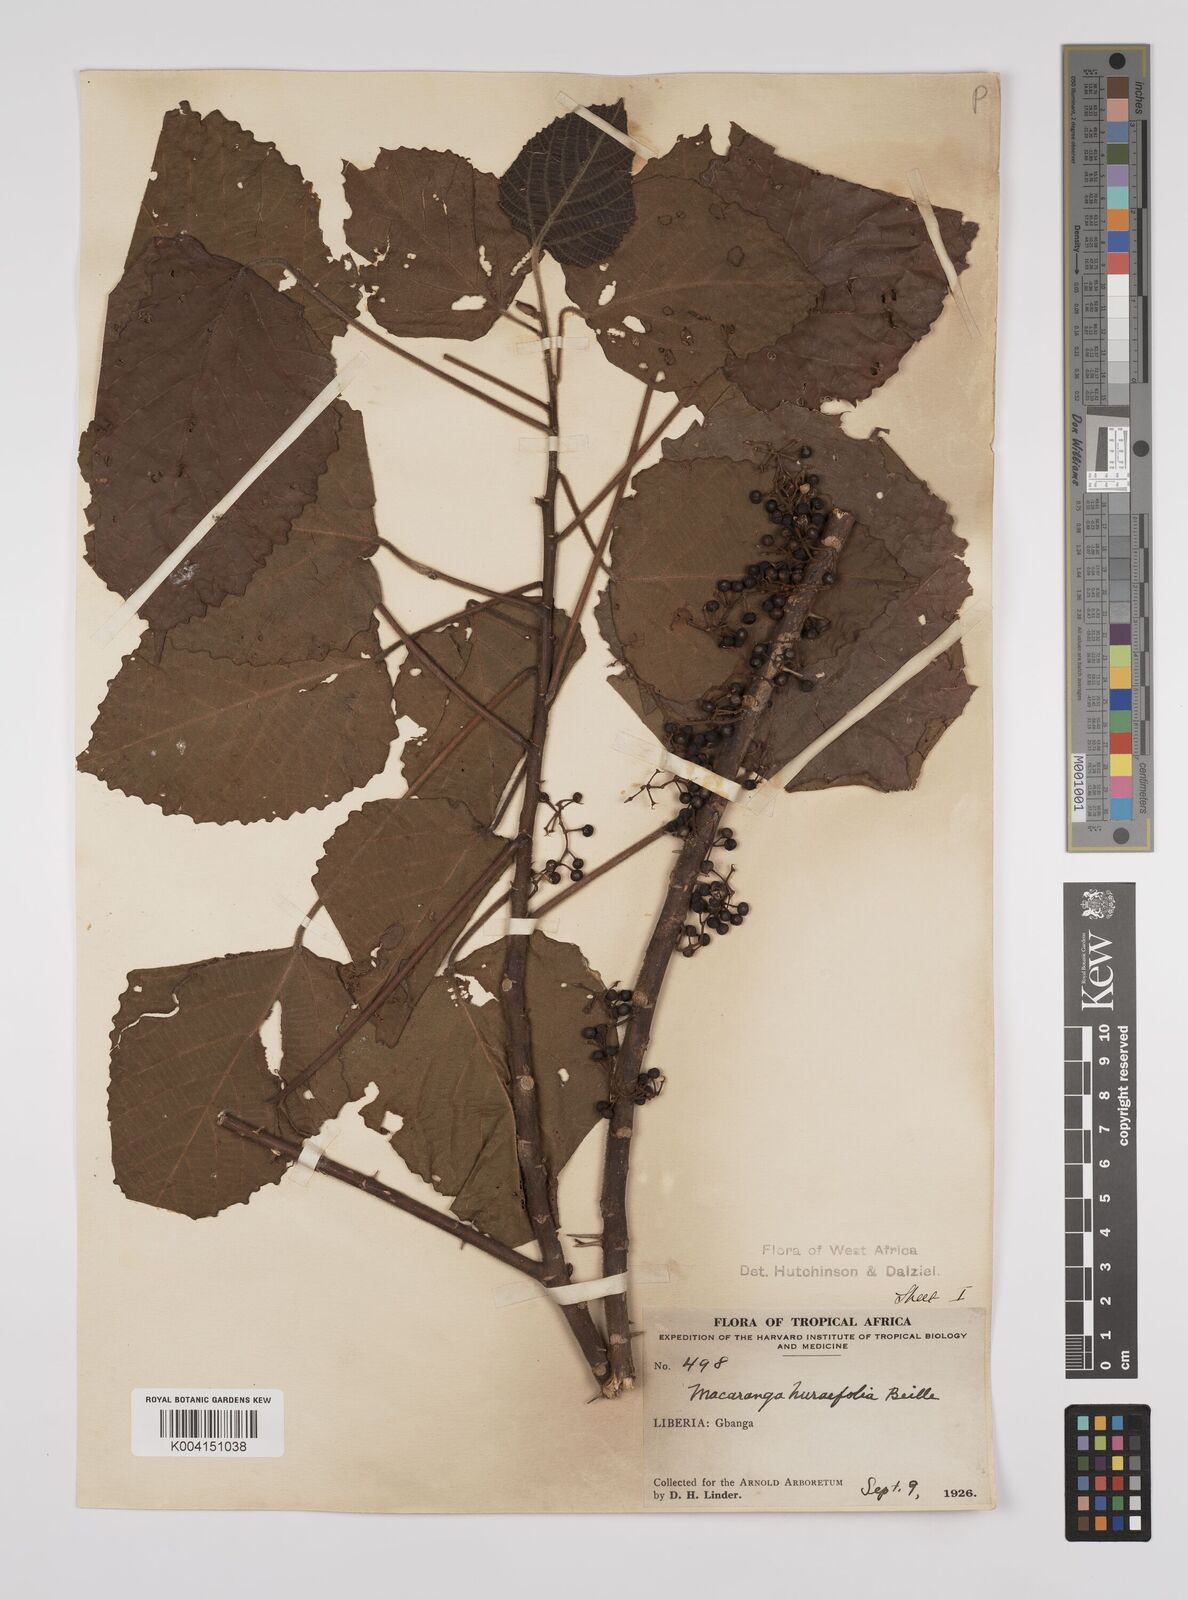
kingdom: Plantae
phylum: Tracheophyta
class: Magnoliopsida
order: Malpighiales
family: Euphorbiaceae
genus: Macaranga
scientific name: Macaranga hurifolia
